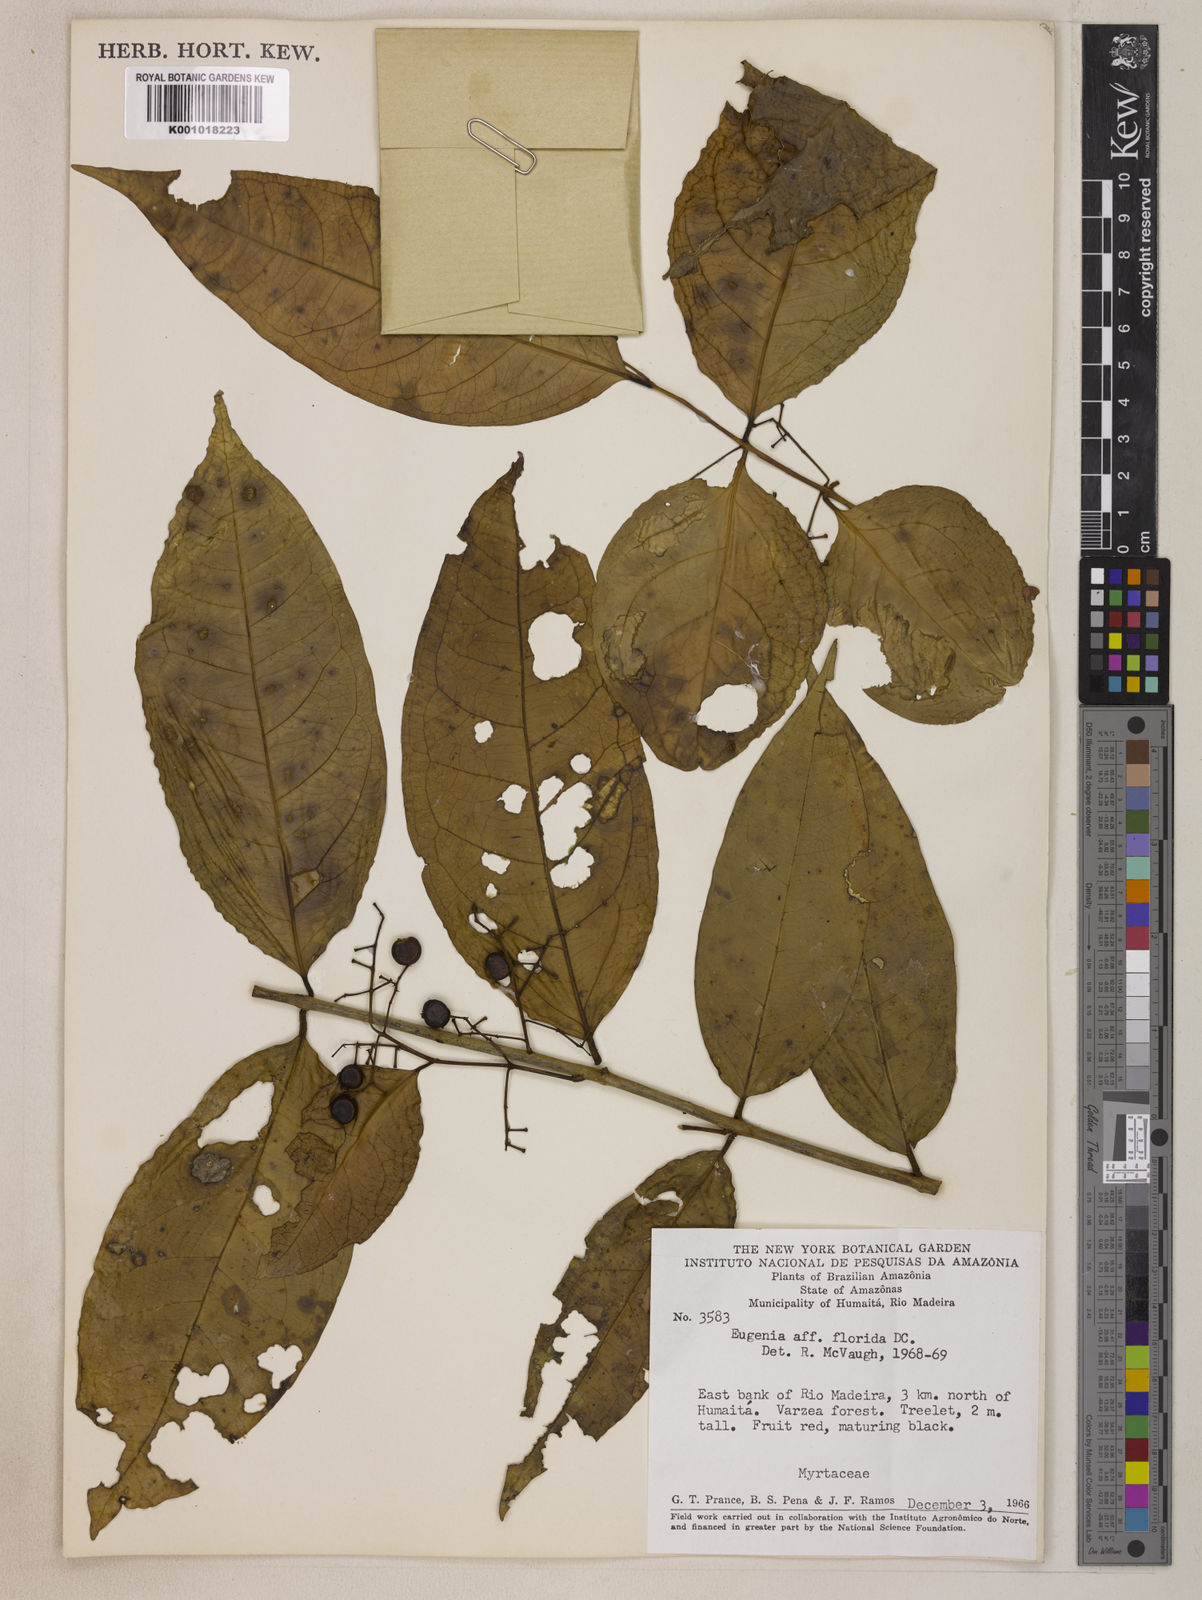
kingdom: Plantae
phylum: Tracheophyta
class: Magnoliopsida
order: Myrtales
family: Myrtaceae
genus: Eugenia
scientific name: Eugenia florida
